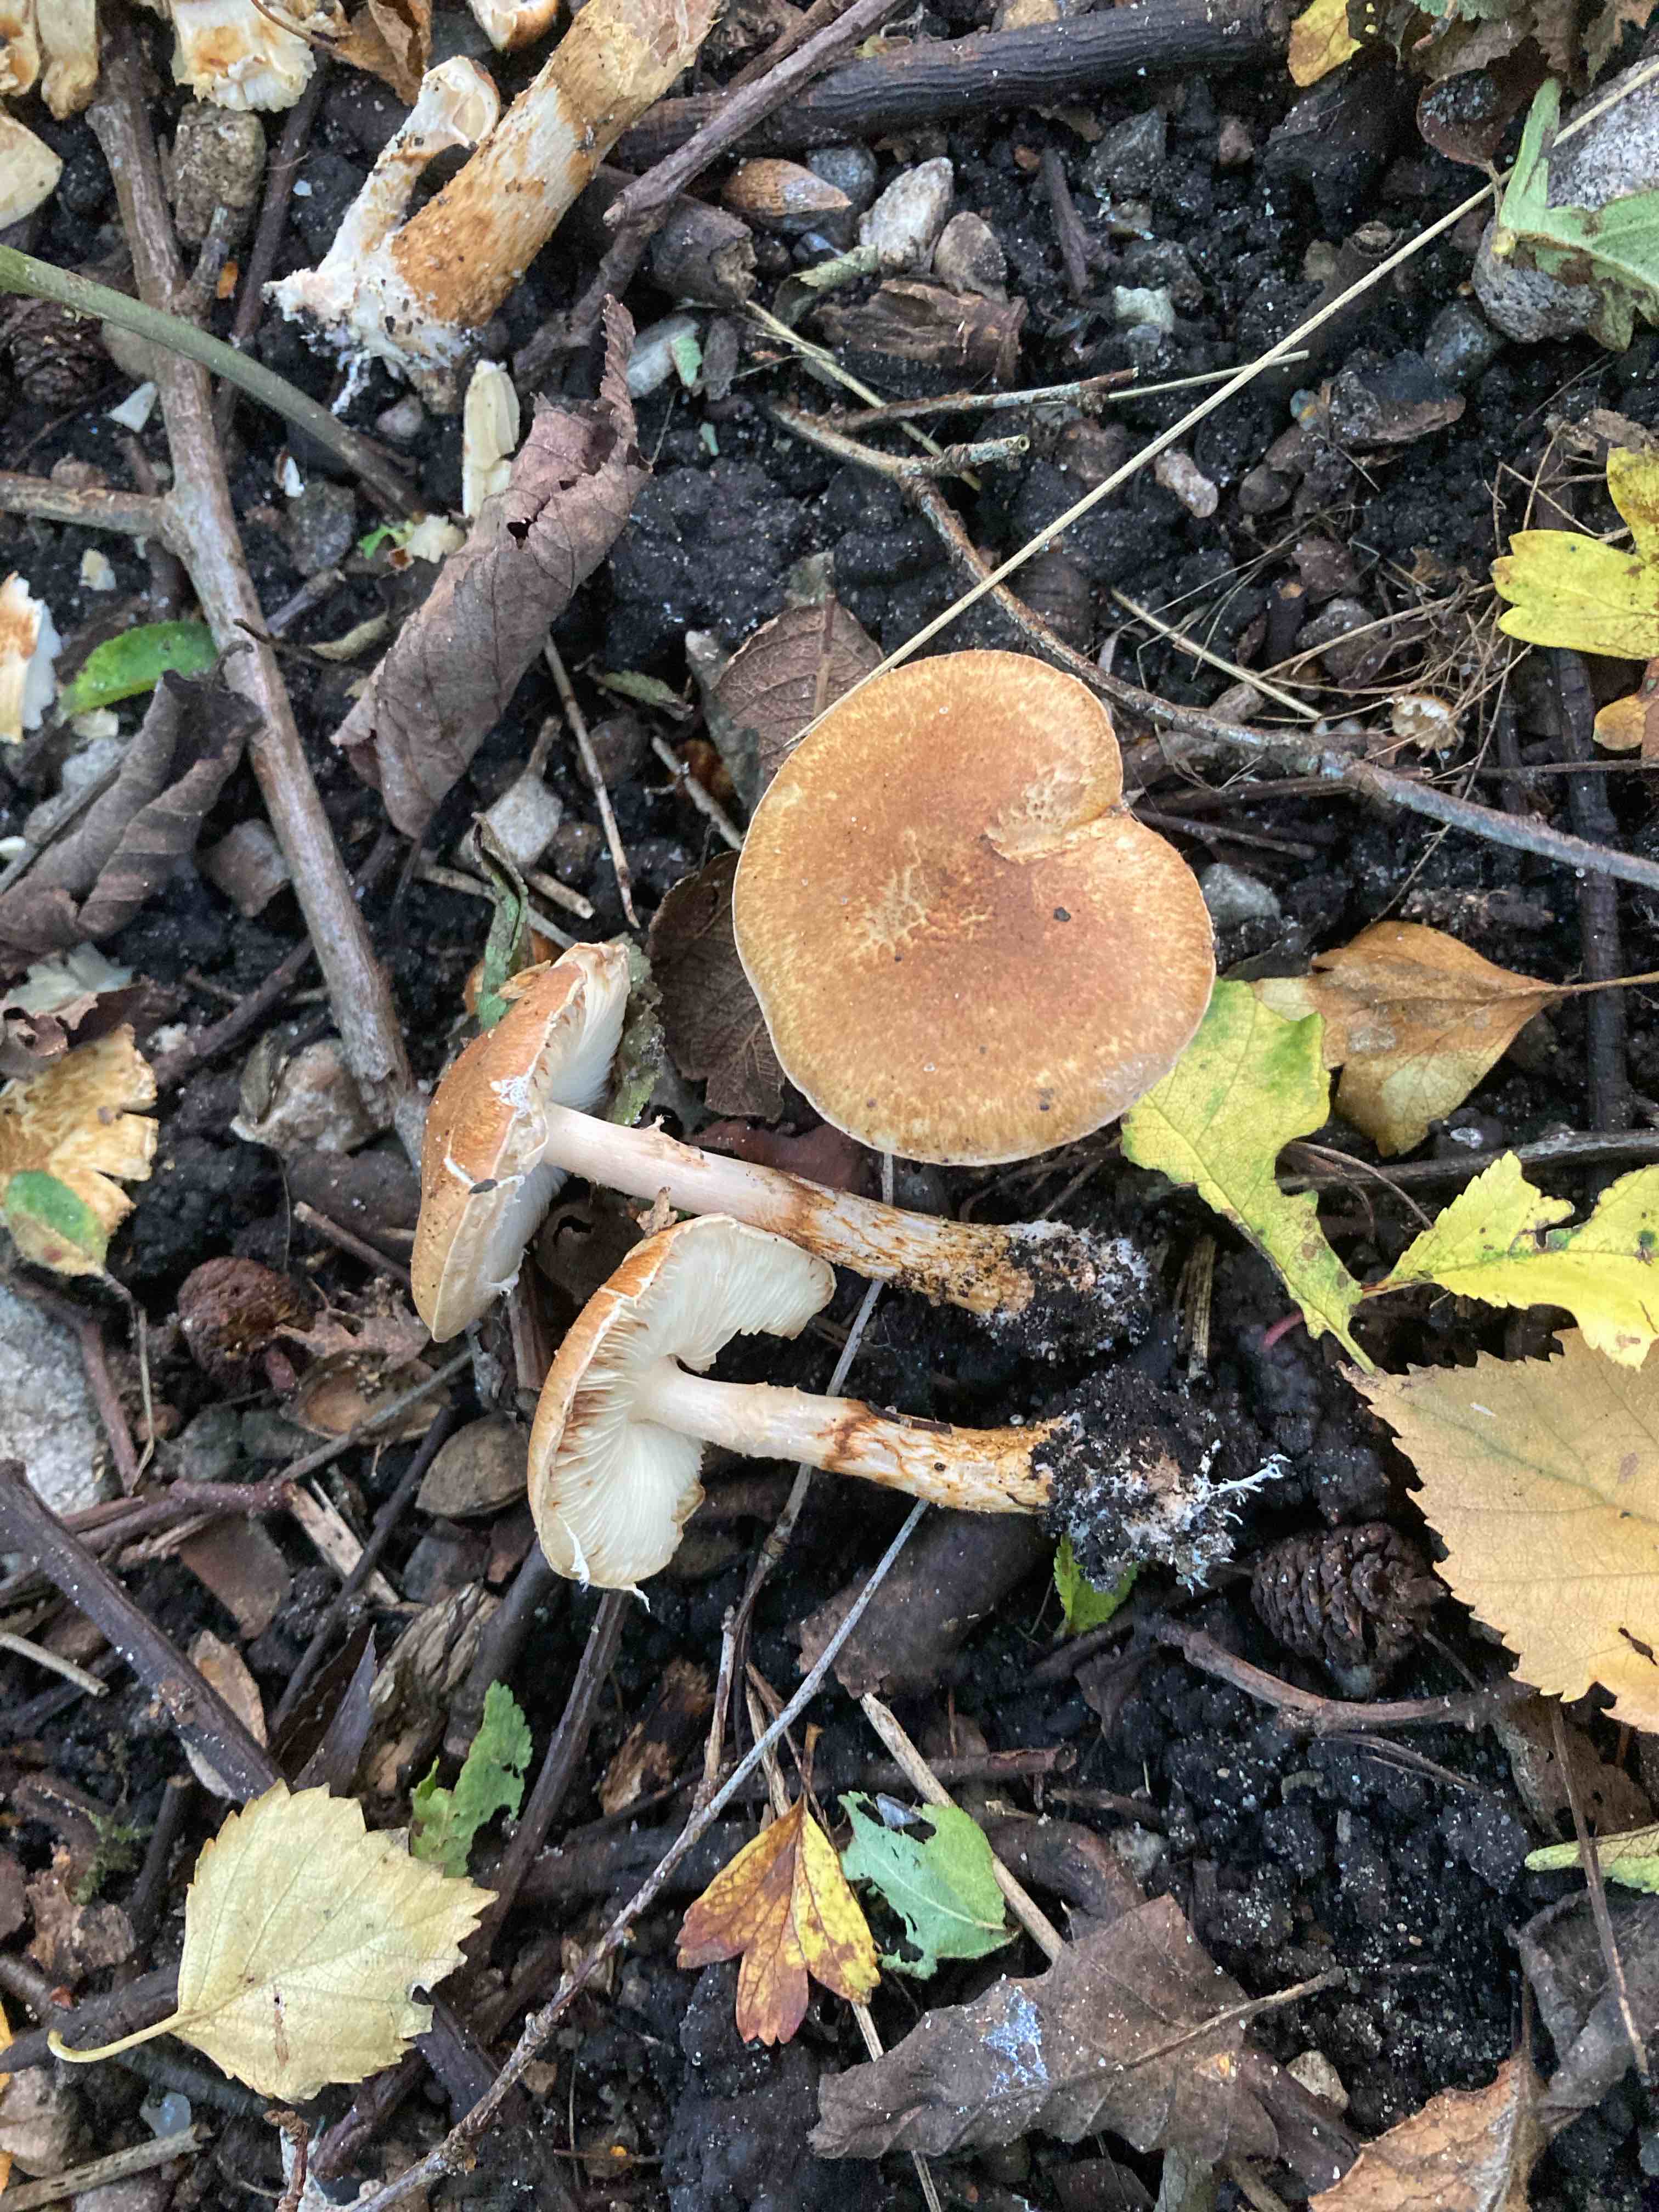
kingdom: Fungi
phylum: Basidiomycota
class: Agaricomycetes
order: Agaricales
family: Agaricaceae
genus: Leucocoprinus
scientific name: Leucocoprinus straminellus
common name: rustbrun parasolhat
